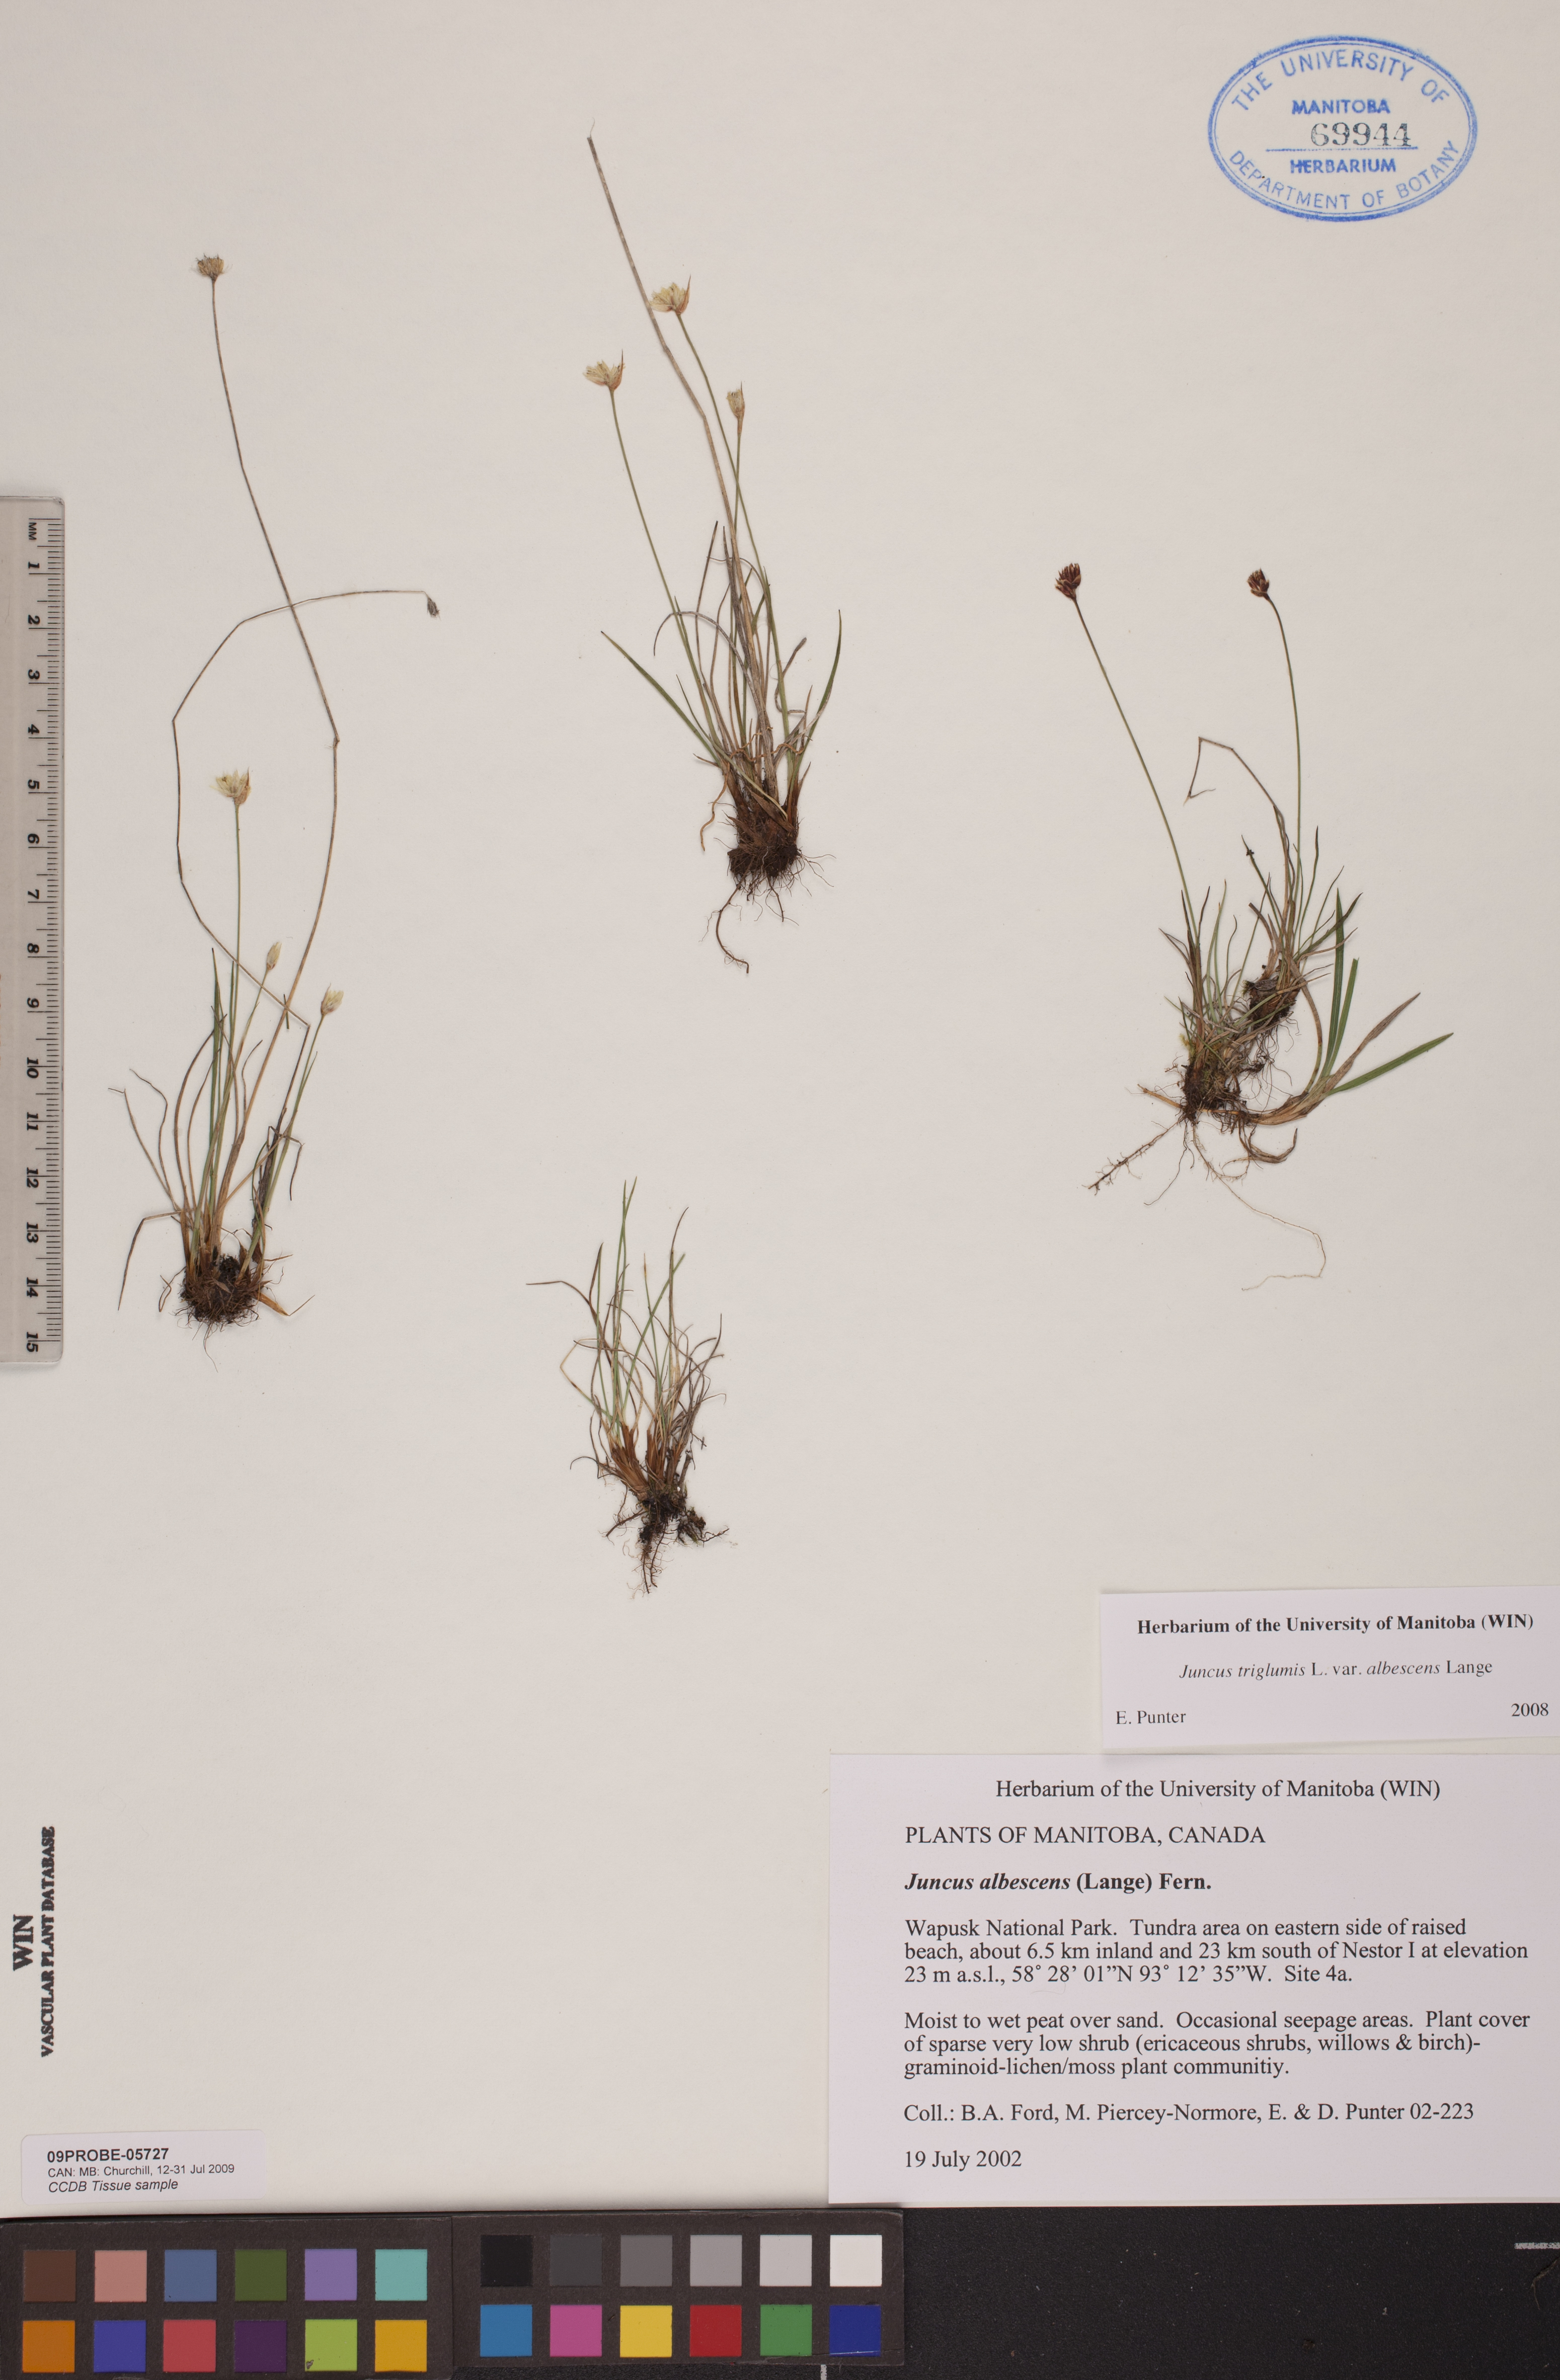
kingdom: Plantae
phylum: Tracheophyta
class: Liliopsida
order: Poales
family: Juncaceae
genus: Juncus
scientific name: Juncus albescens
